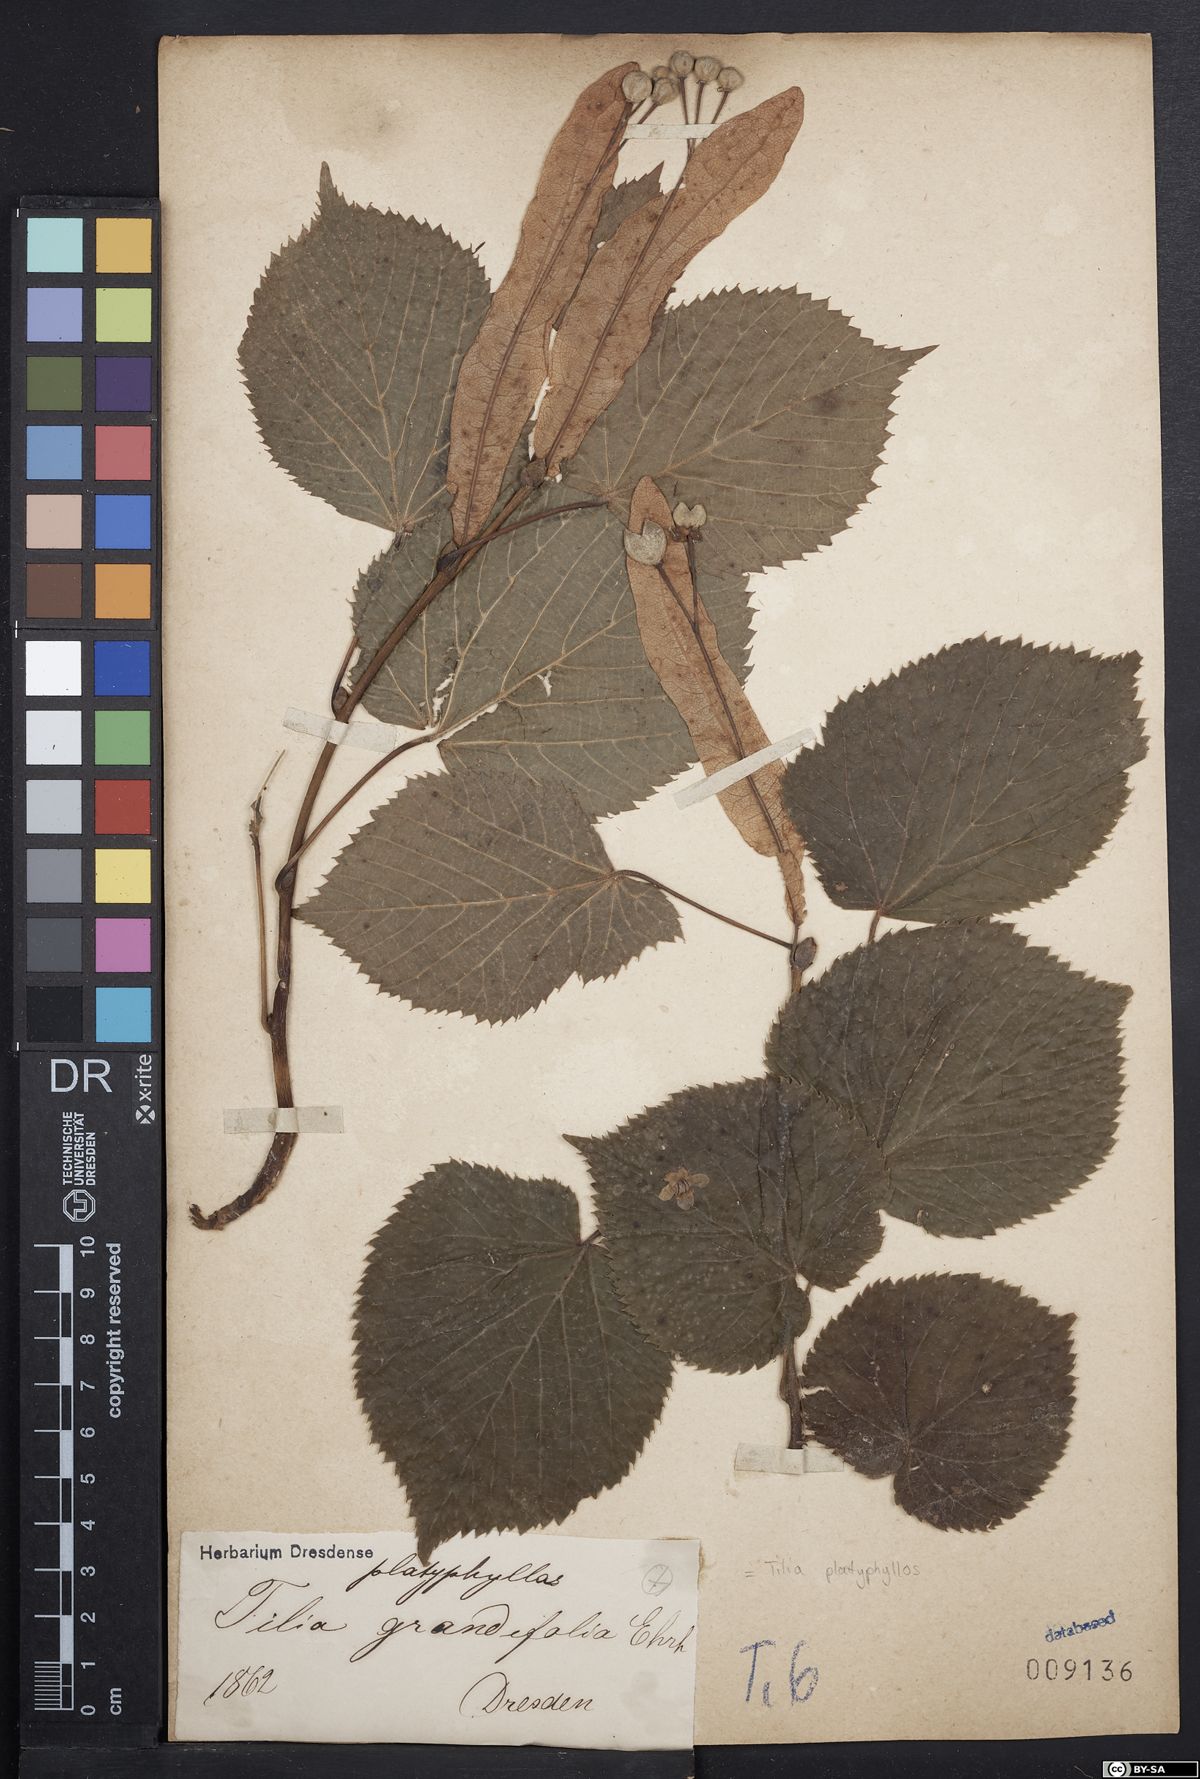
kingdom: Plantae
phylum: Tracheophyta
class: Magnoliopsida
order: Malvales
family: Malvaceae
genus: Tilia
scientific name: Tilia platyphyllos
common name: Large-leaved lime
